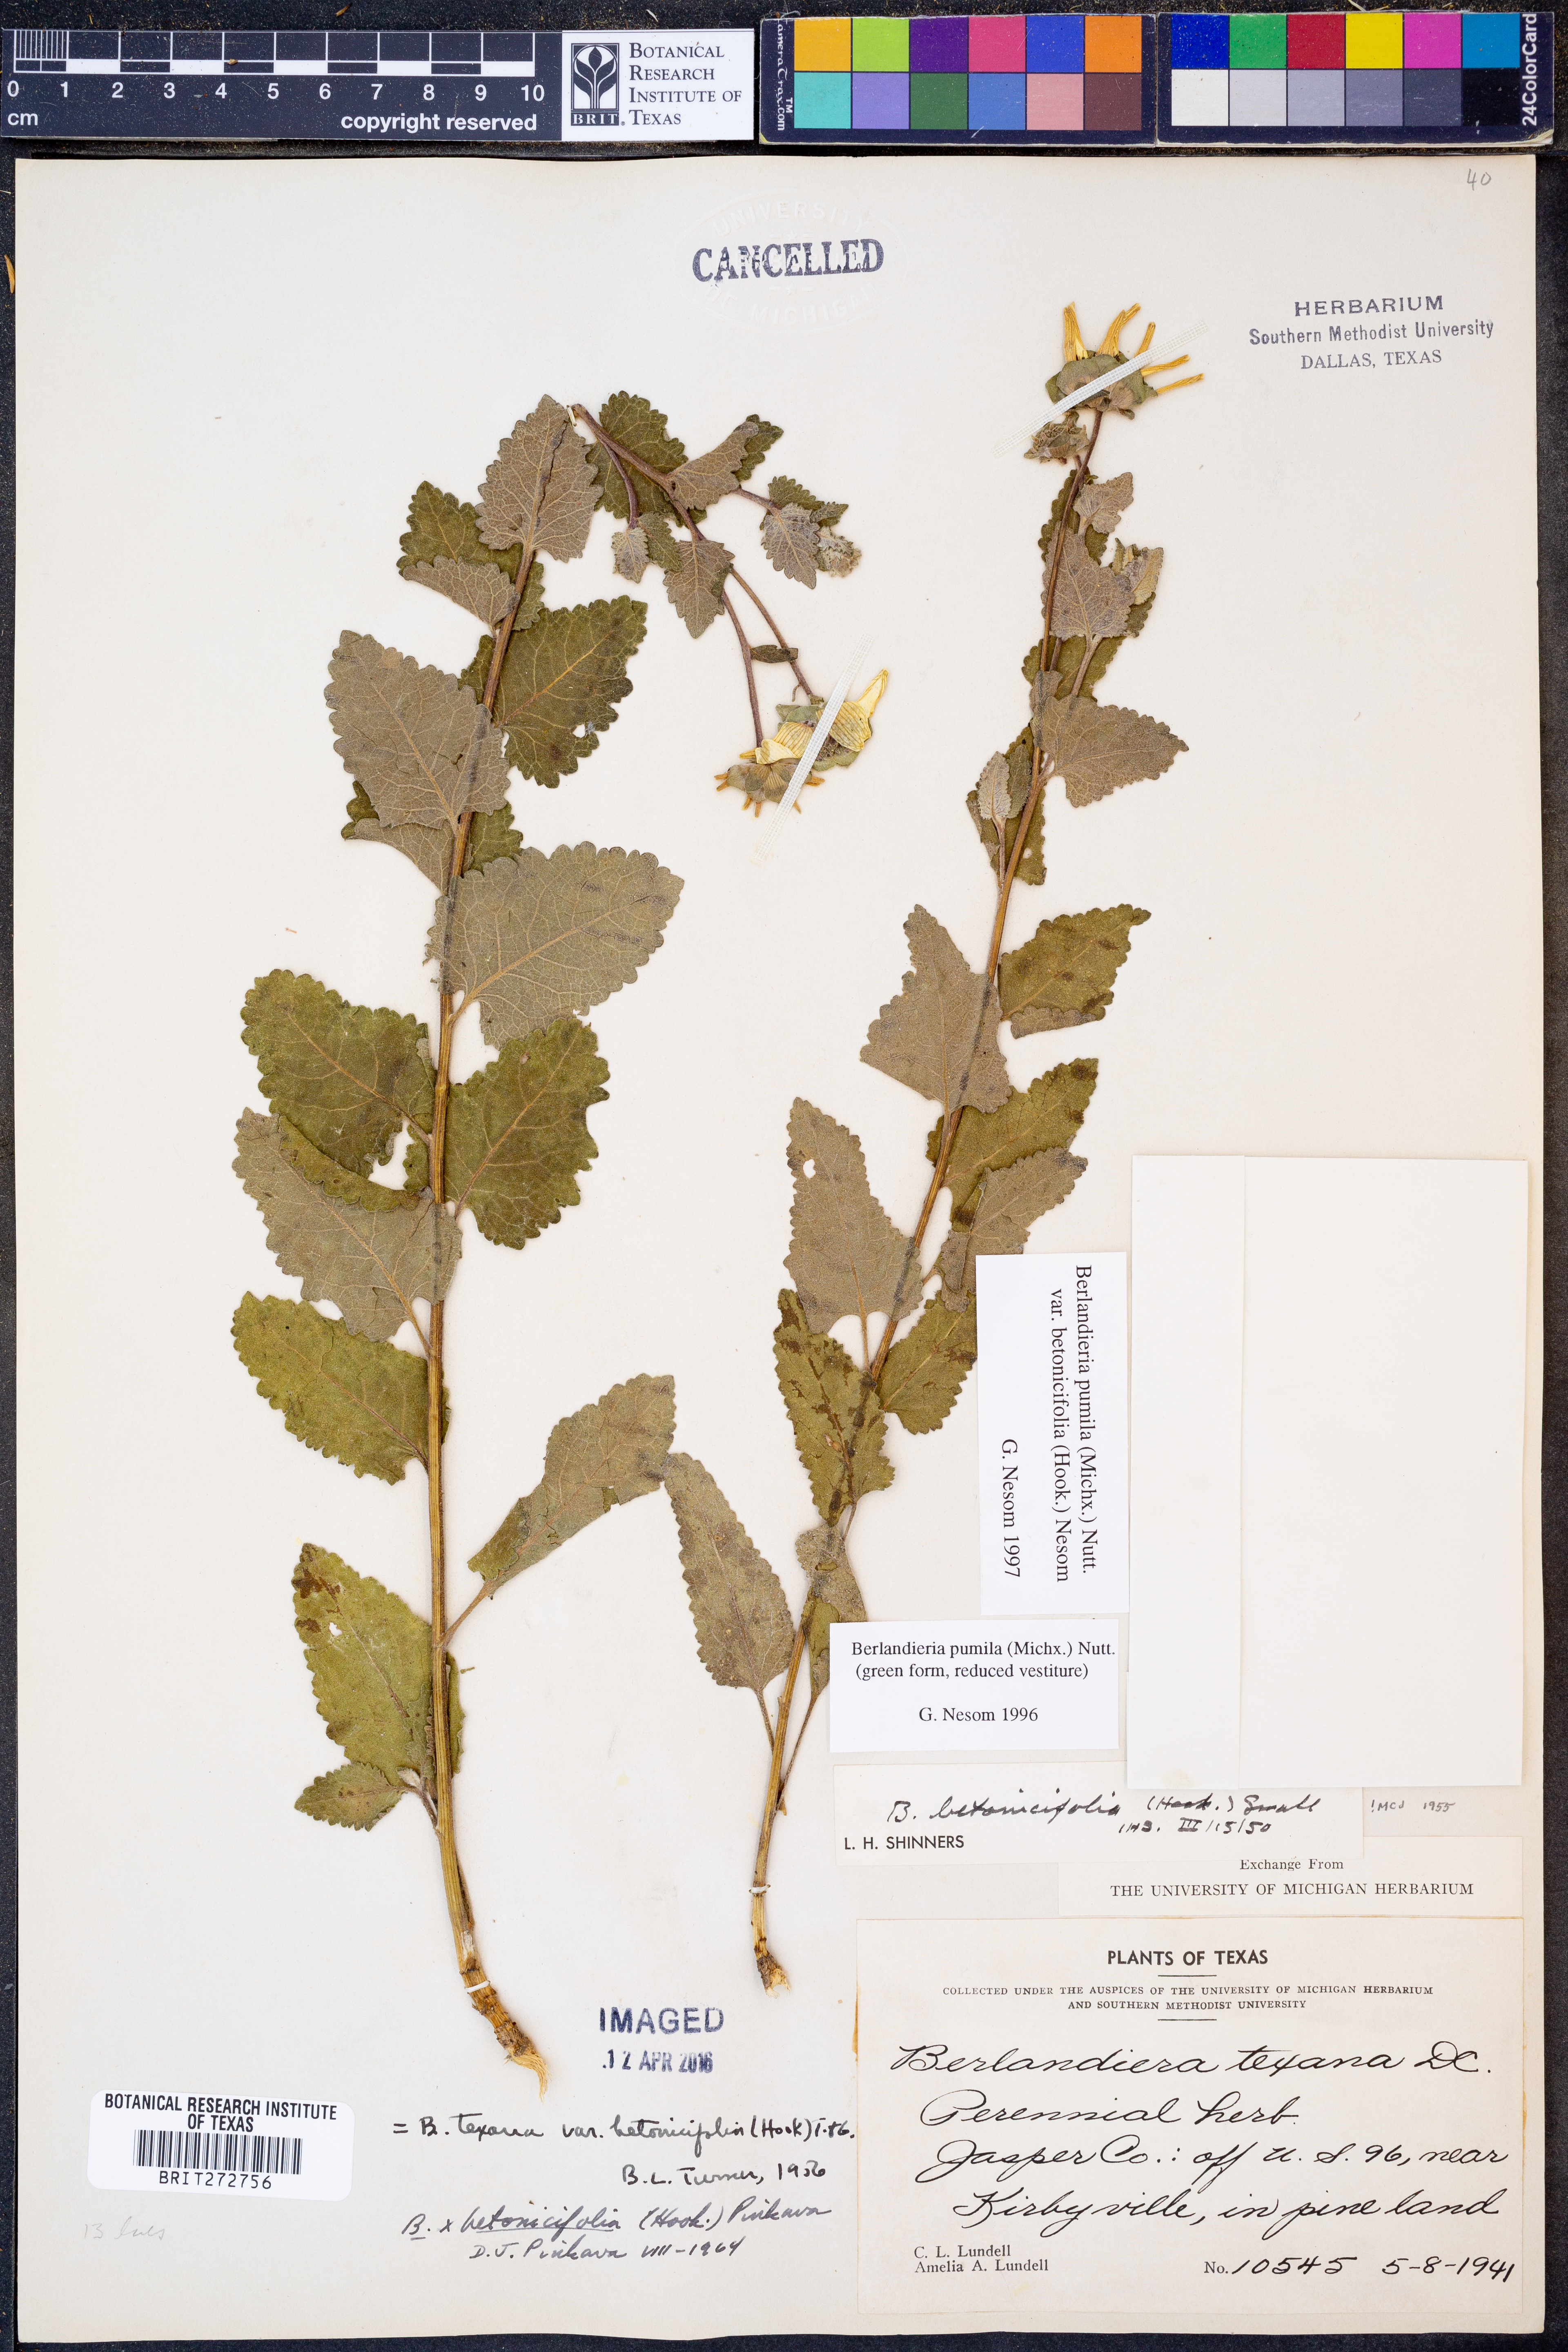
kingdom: Plantae
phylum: Tracheophyta
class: Magnoliopsida
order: Asterales
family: Asteraceae
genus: Berlandiera
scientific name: Berlandiera pumila
